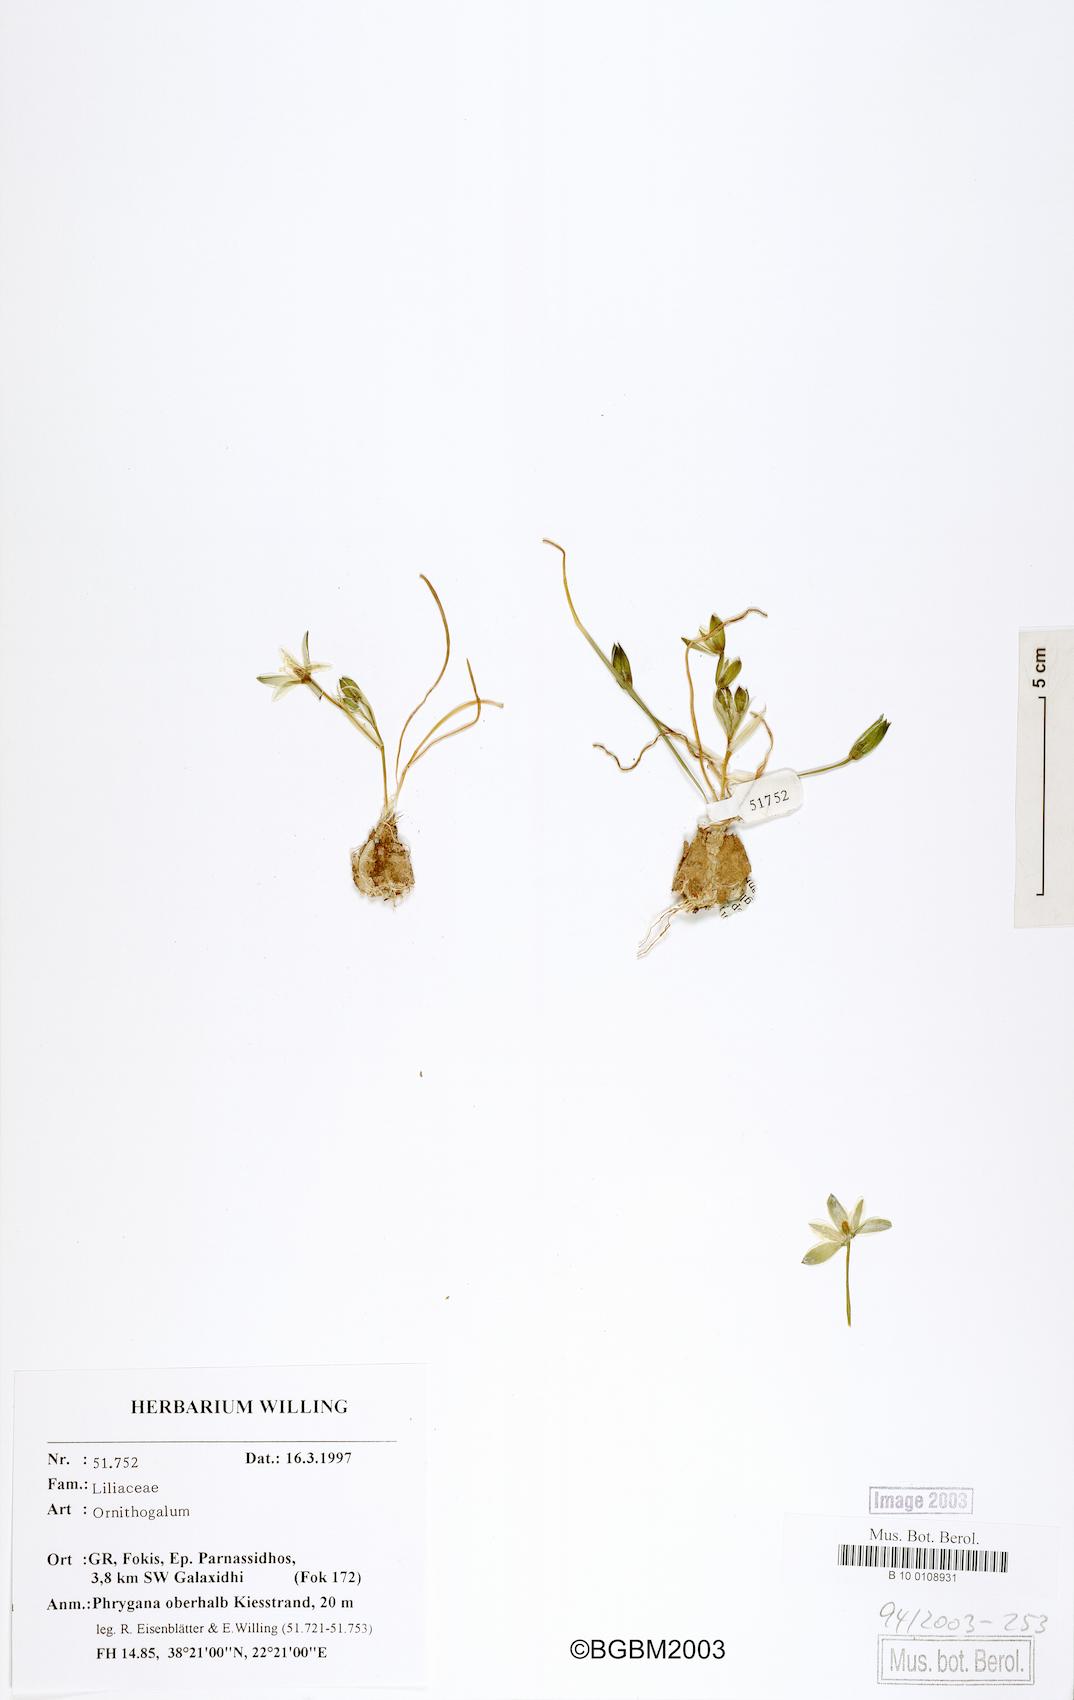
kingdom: Plantae
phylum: Tracheophyta
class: Liliopsida
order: Asparagales
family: Asparagaceae
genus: Ornithogalum
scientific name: Ornithogalum
